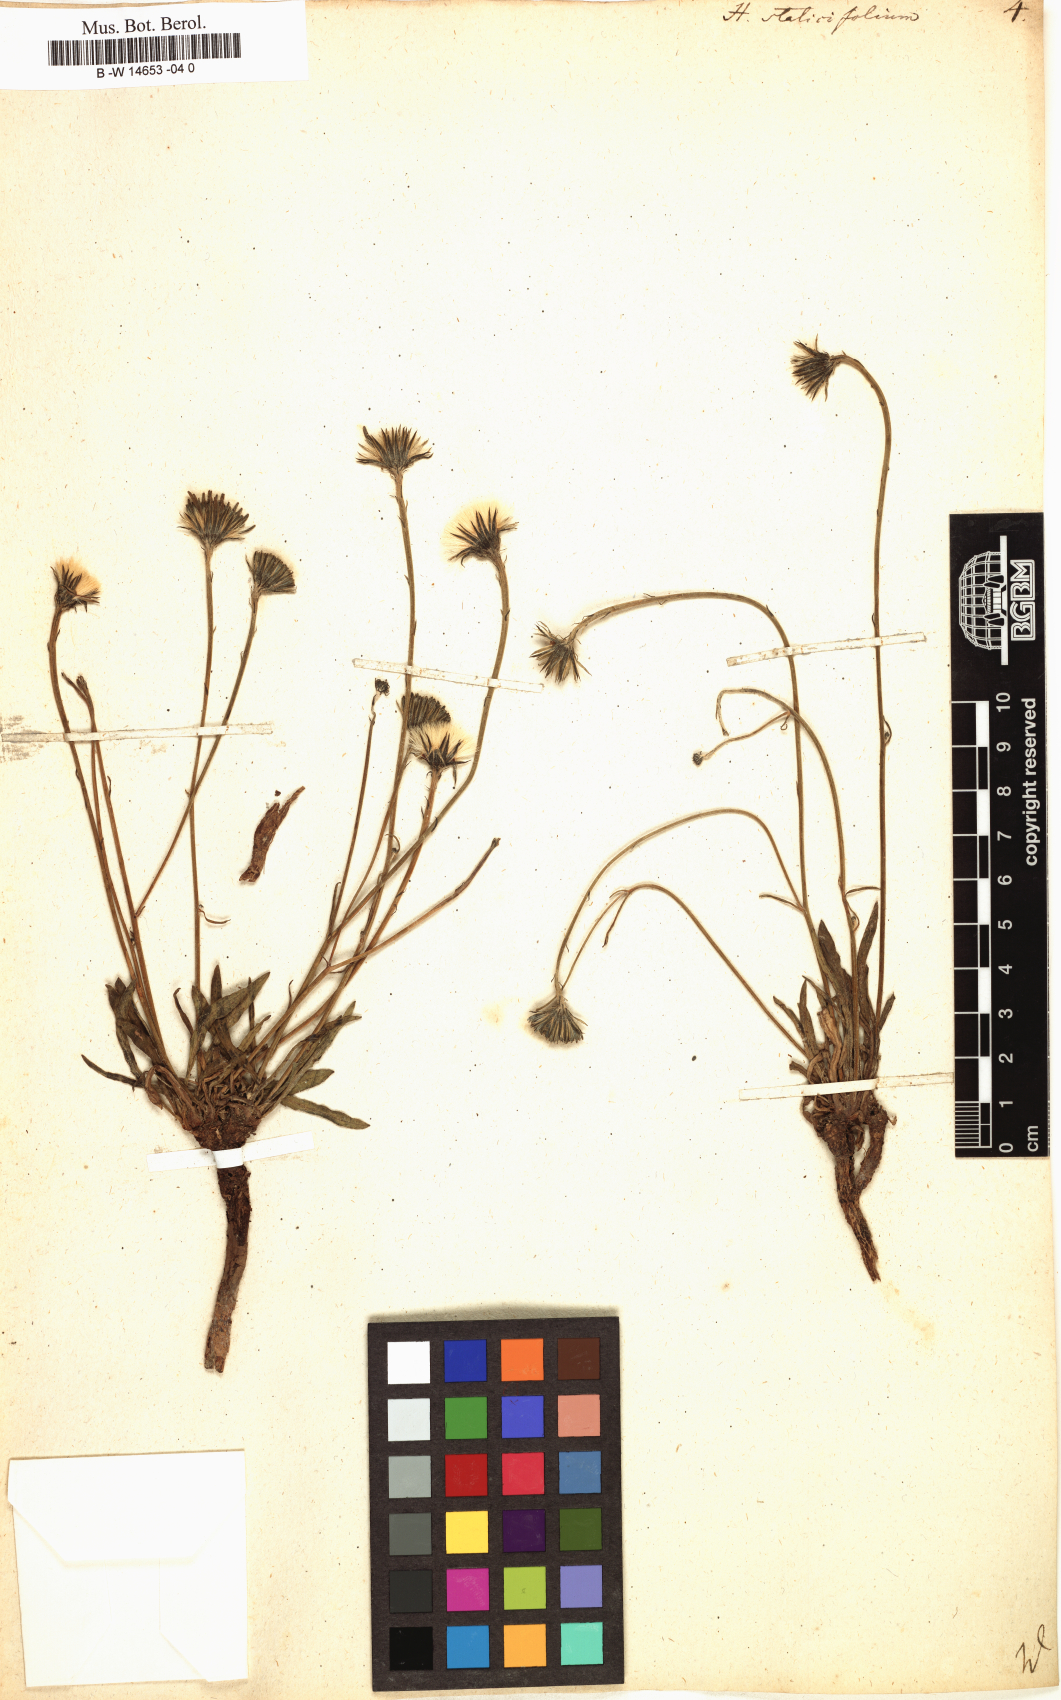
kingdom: Plantae
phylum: Tracheophyta
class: Magnoliopsida
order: Asterales
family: Asteraceae
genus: Hieracium
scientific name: Hieracium staticifolium
